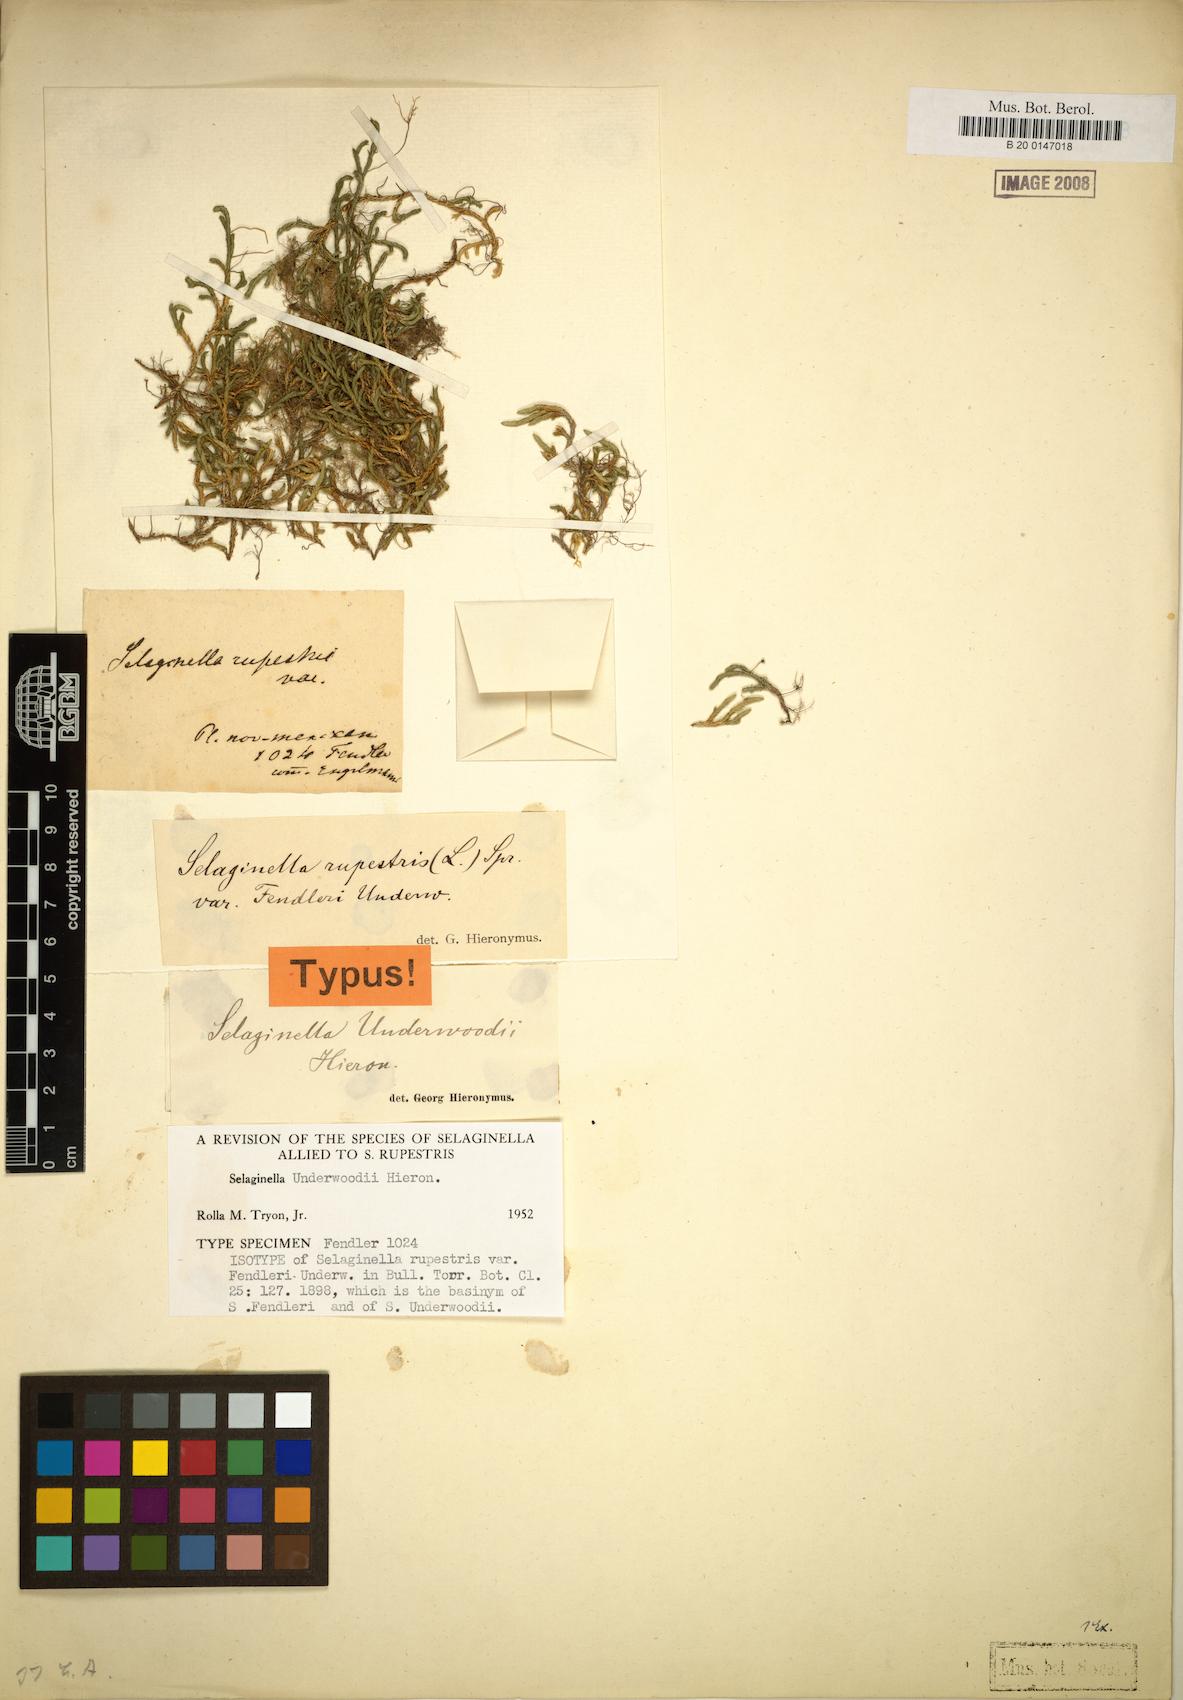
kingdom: Plantae
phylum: Tracheophyta
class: Lycopodiopsida
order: Selaginellales
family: Selaginellaceae
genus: Selaginella
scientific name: Selaginella underwoodii
